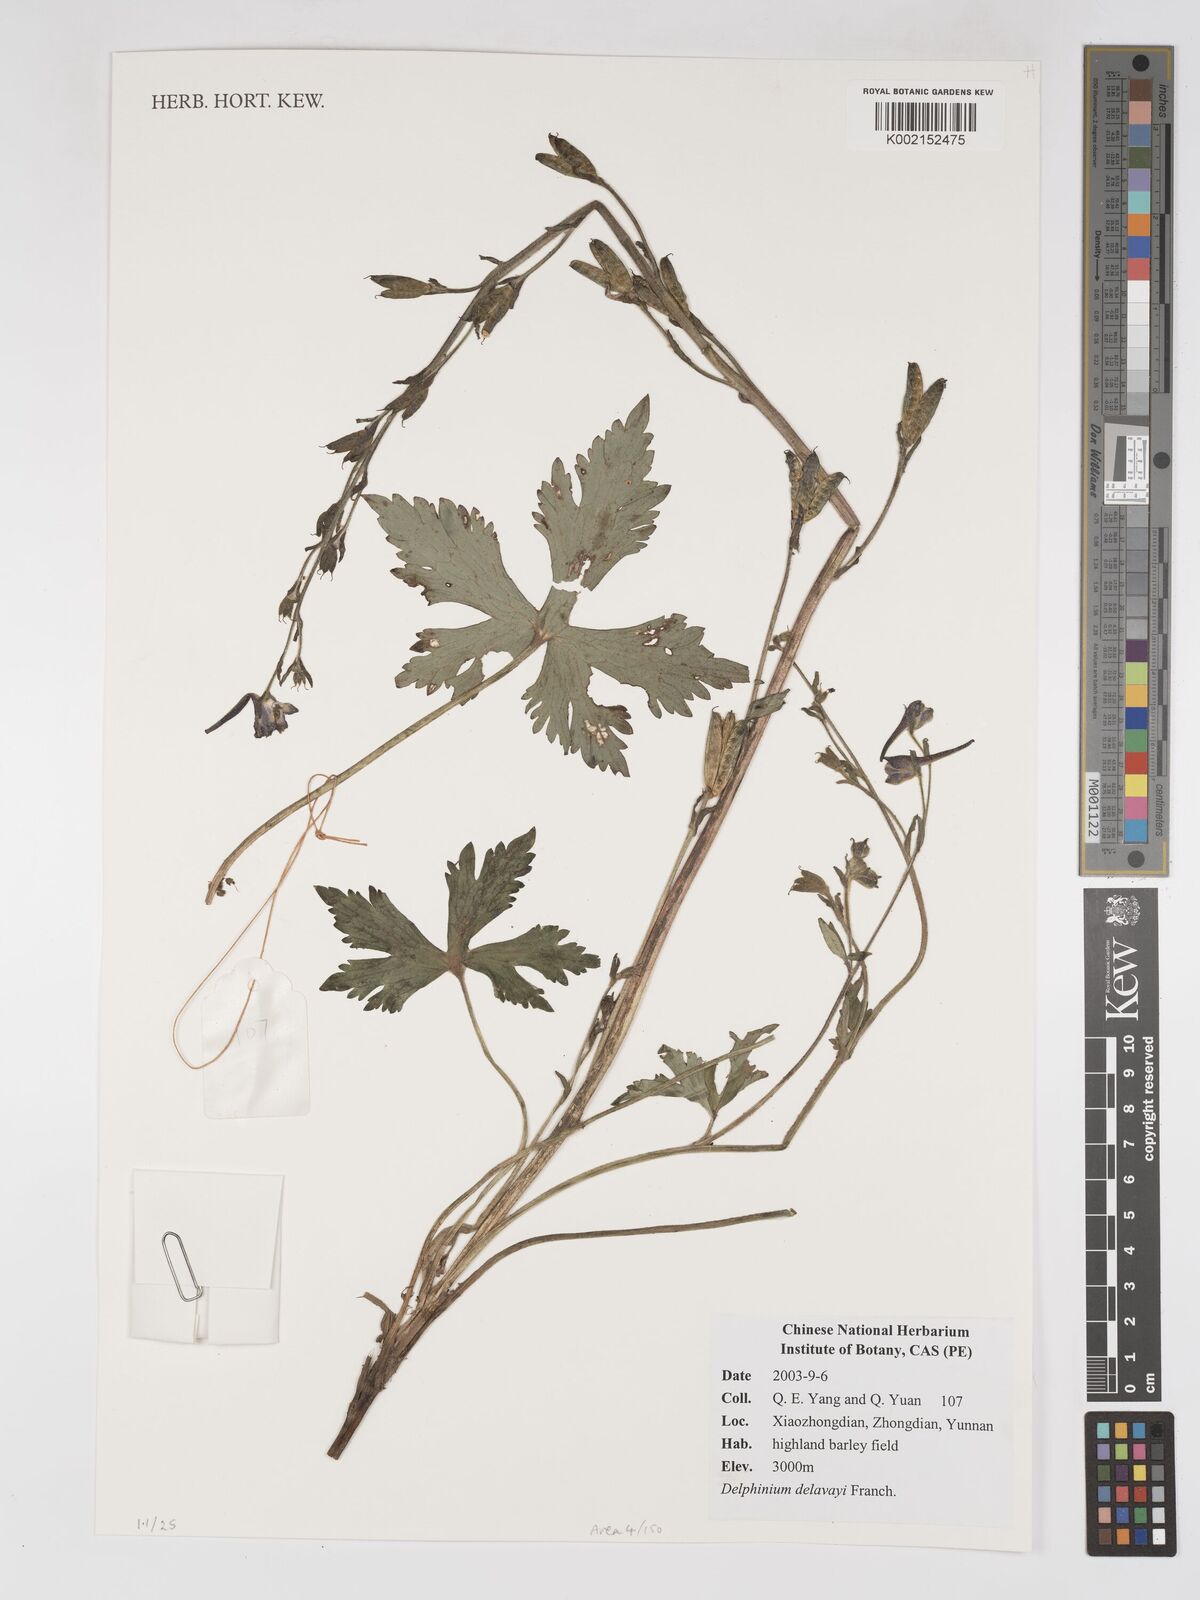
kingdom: Plantae
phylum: Tracheophyta
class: Magnoliopsida
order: Ranunculales
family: Ranunculaceae
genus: Delphinium
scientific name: Delphinium delavayi
